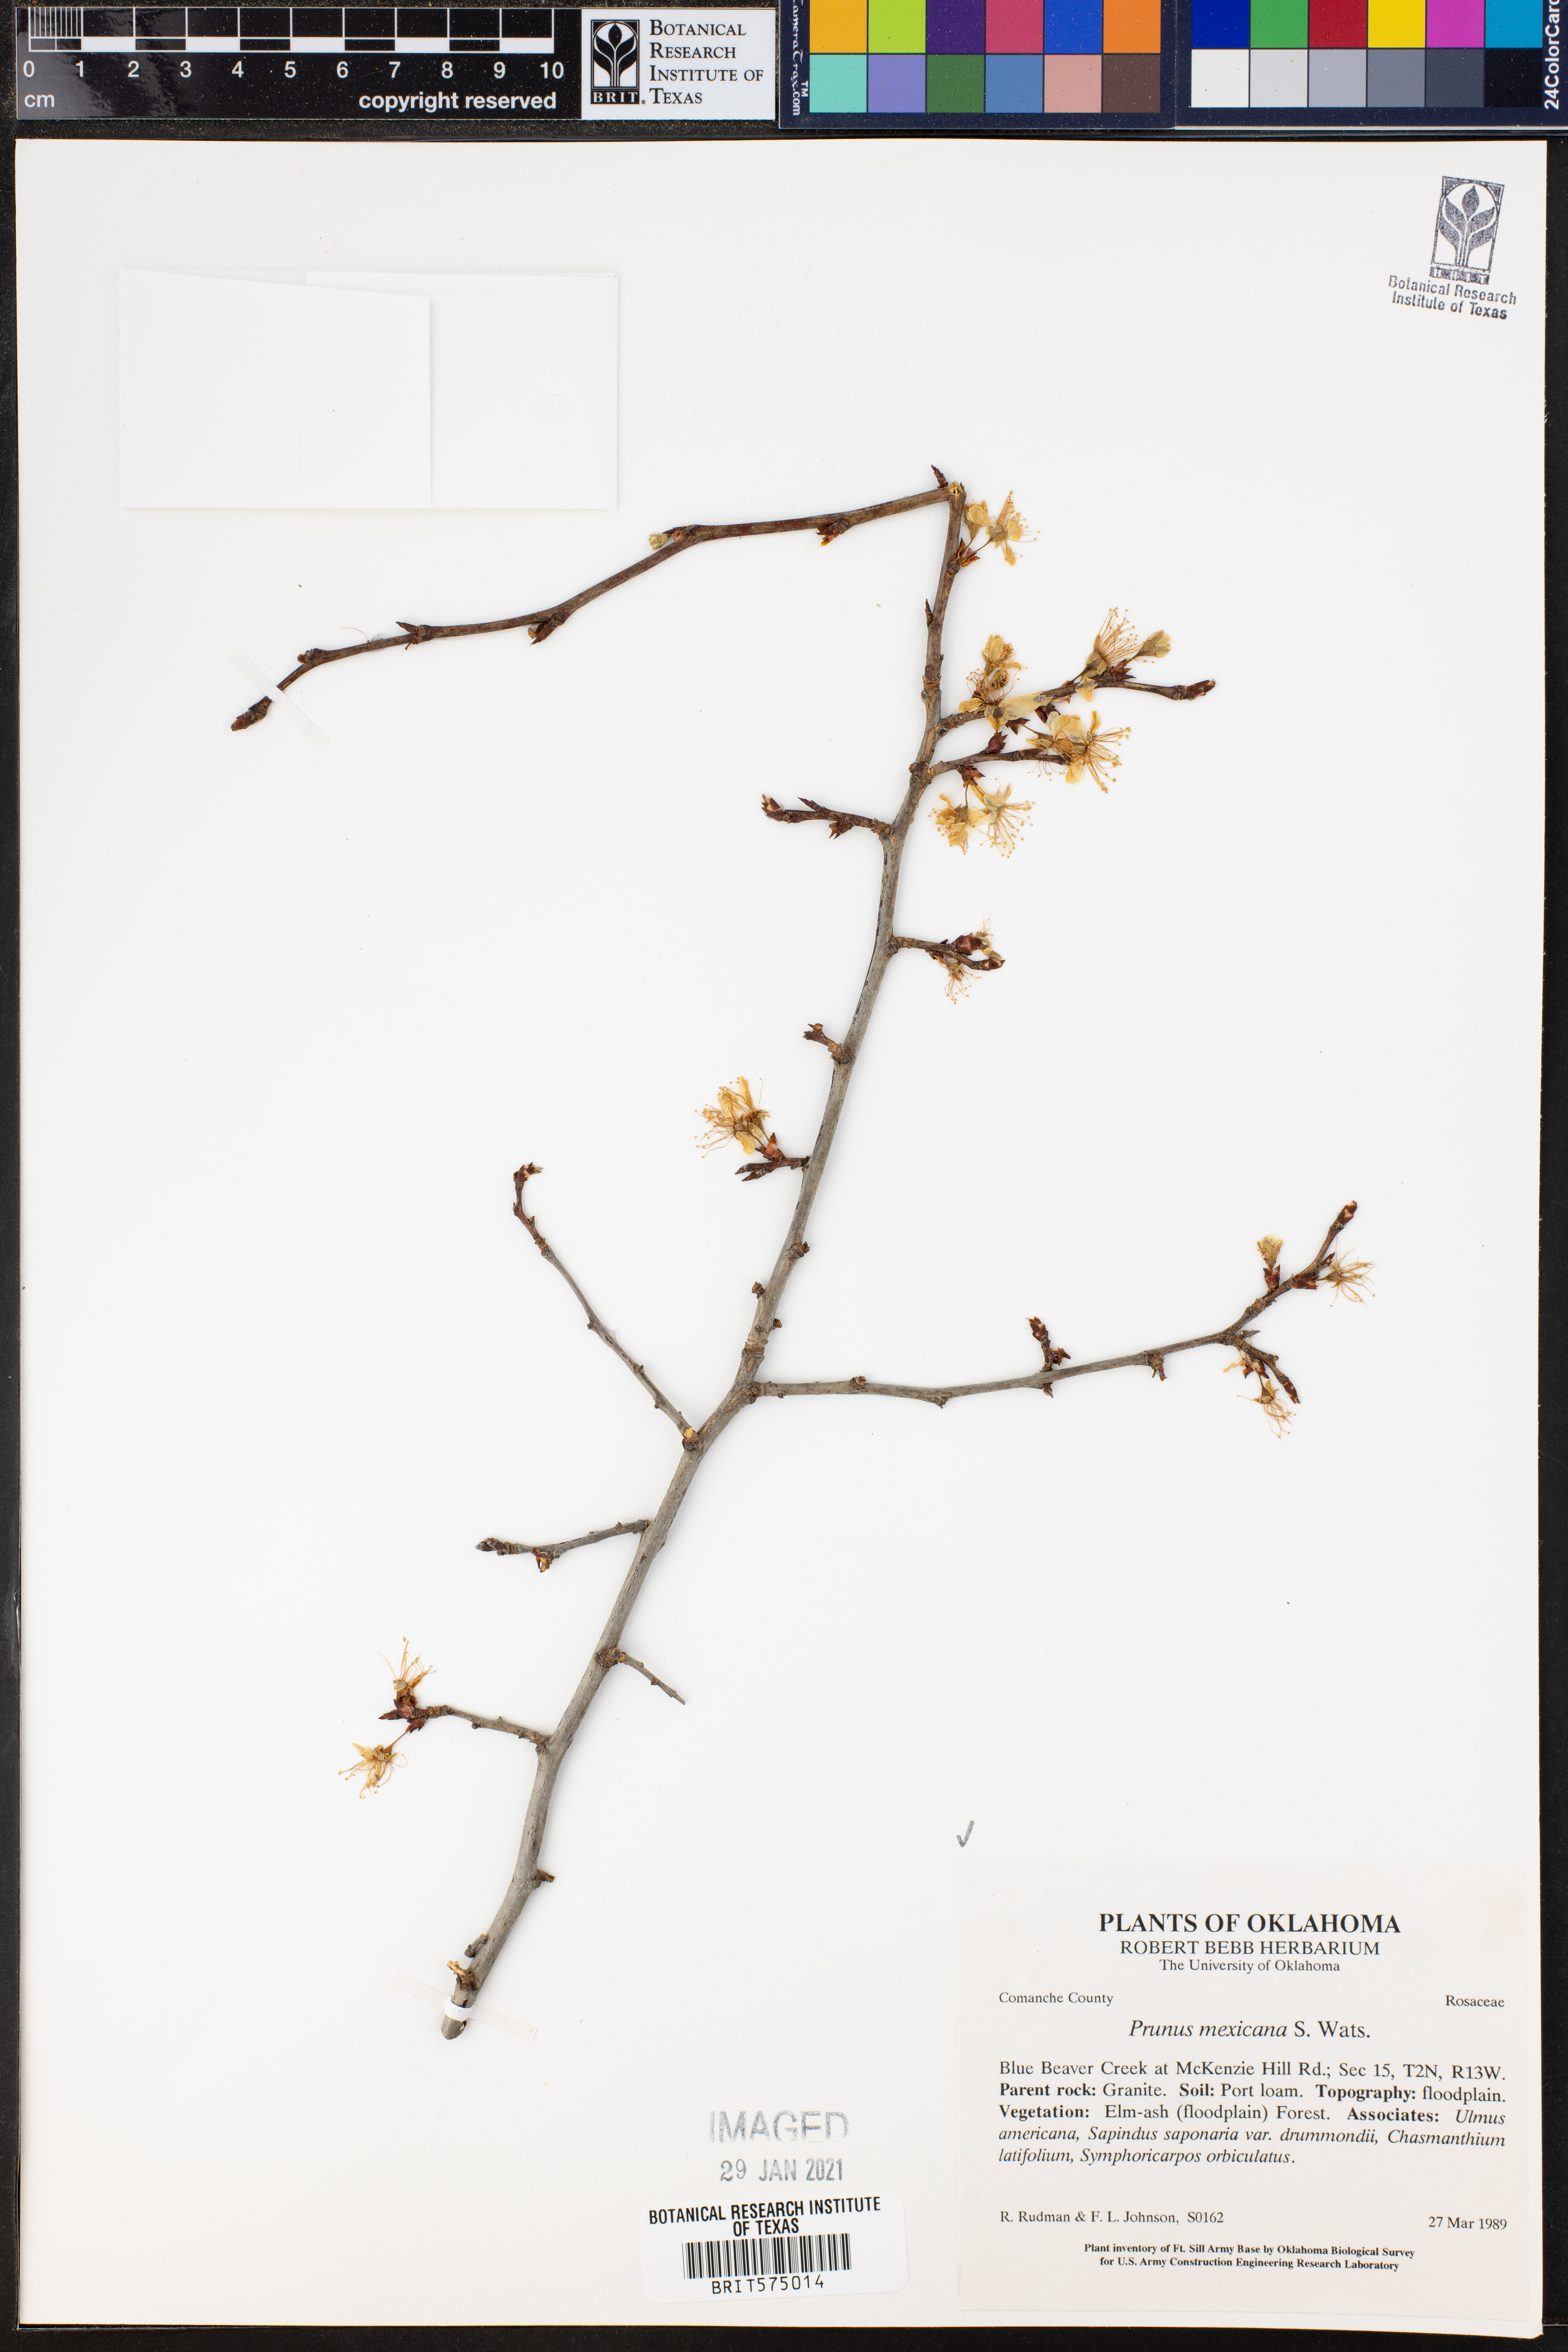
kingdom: Plantae
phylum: Tracheophyta
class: Magnoliopsida
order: Rosales
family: Rosaceae
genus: Prunus
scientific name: Prunus mexicana
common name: Mexican plum
